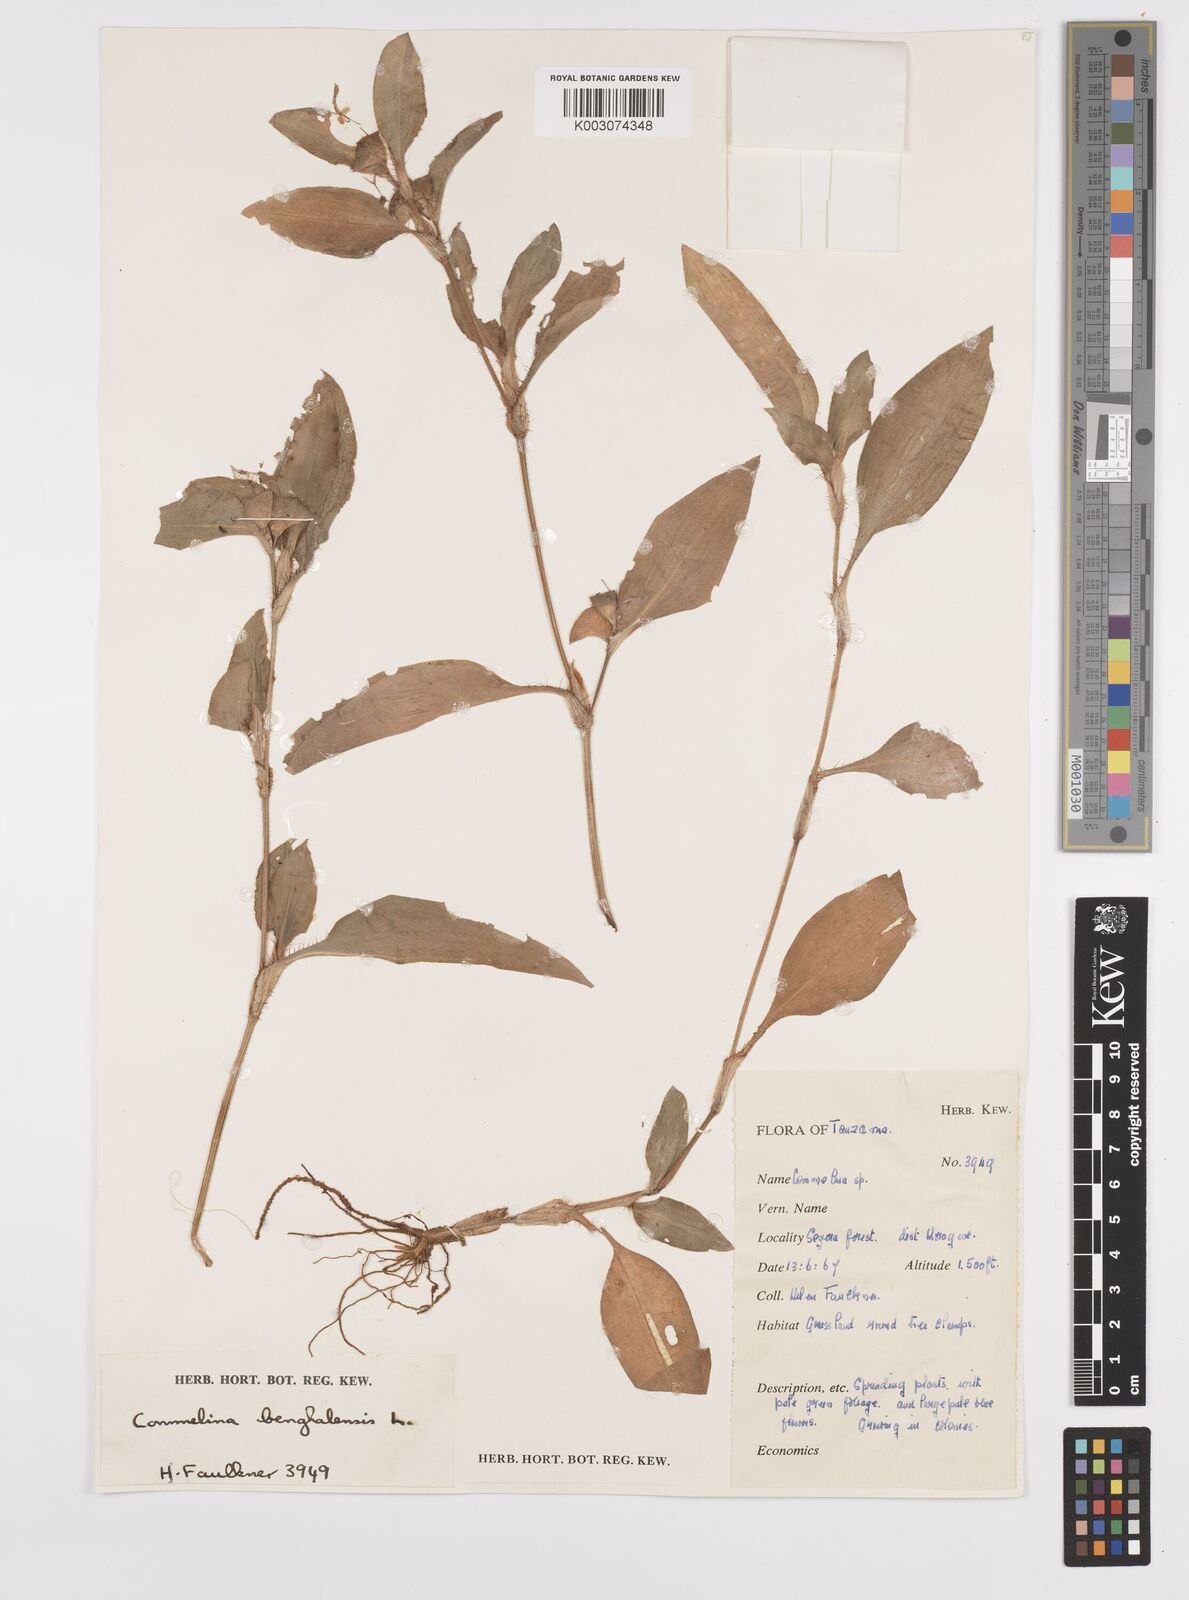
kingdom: Plantae
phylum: Tracheophyta
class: Liliopsida
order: Commelinales
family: Commelinaceae
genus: Commelina
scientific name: Commelina benghalensis
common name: Jio
